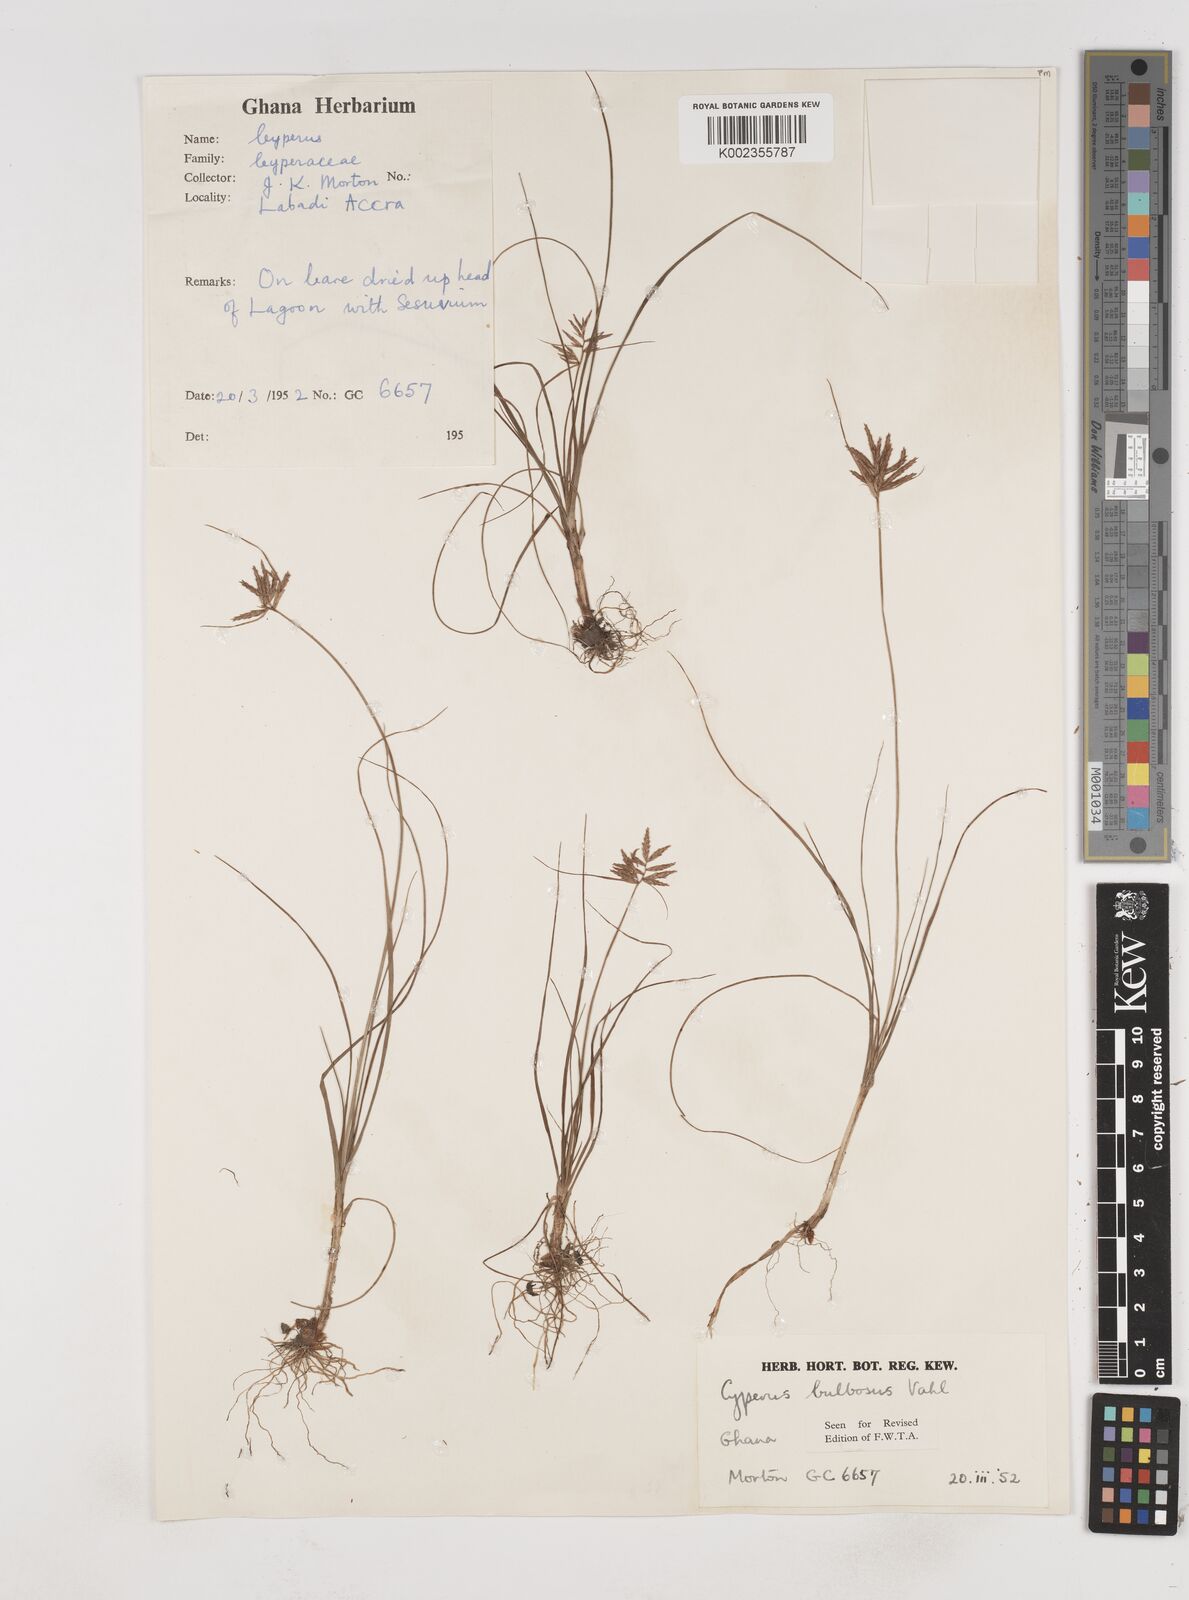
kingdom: Plantae
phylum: Tracheophyta
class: Liliopsida
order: Poales
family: Cyperaceae
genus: Cyperus
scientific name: Cyperus bulbosus
